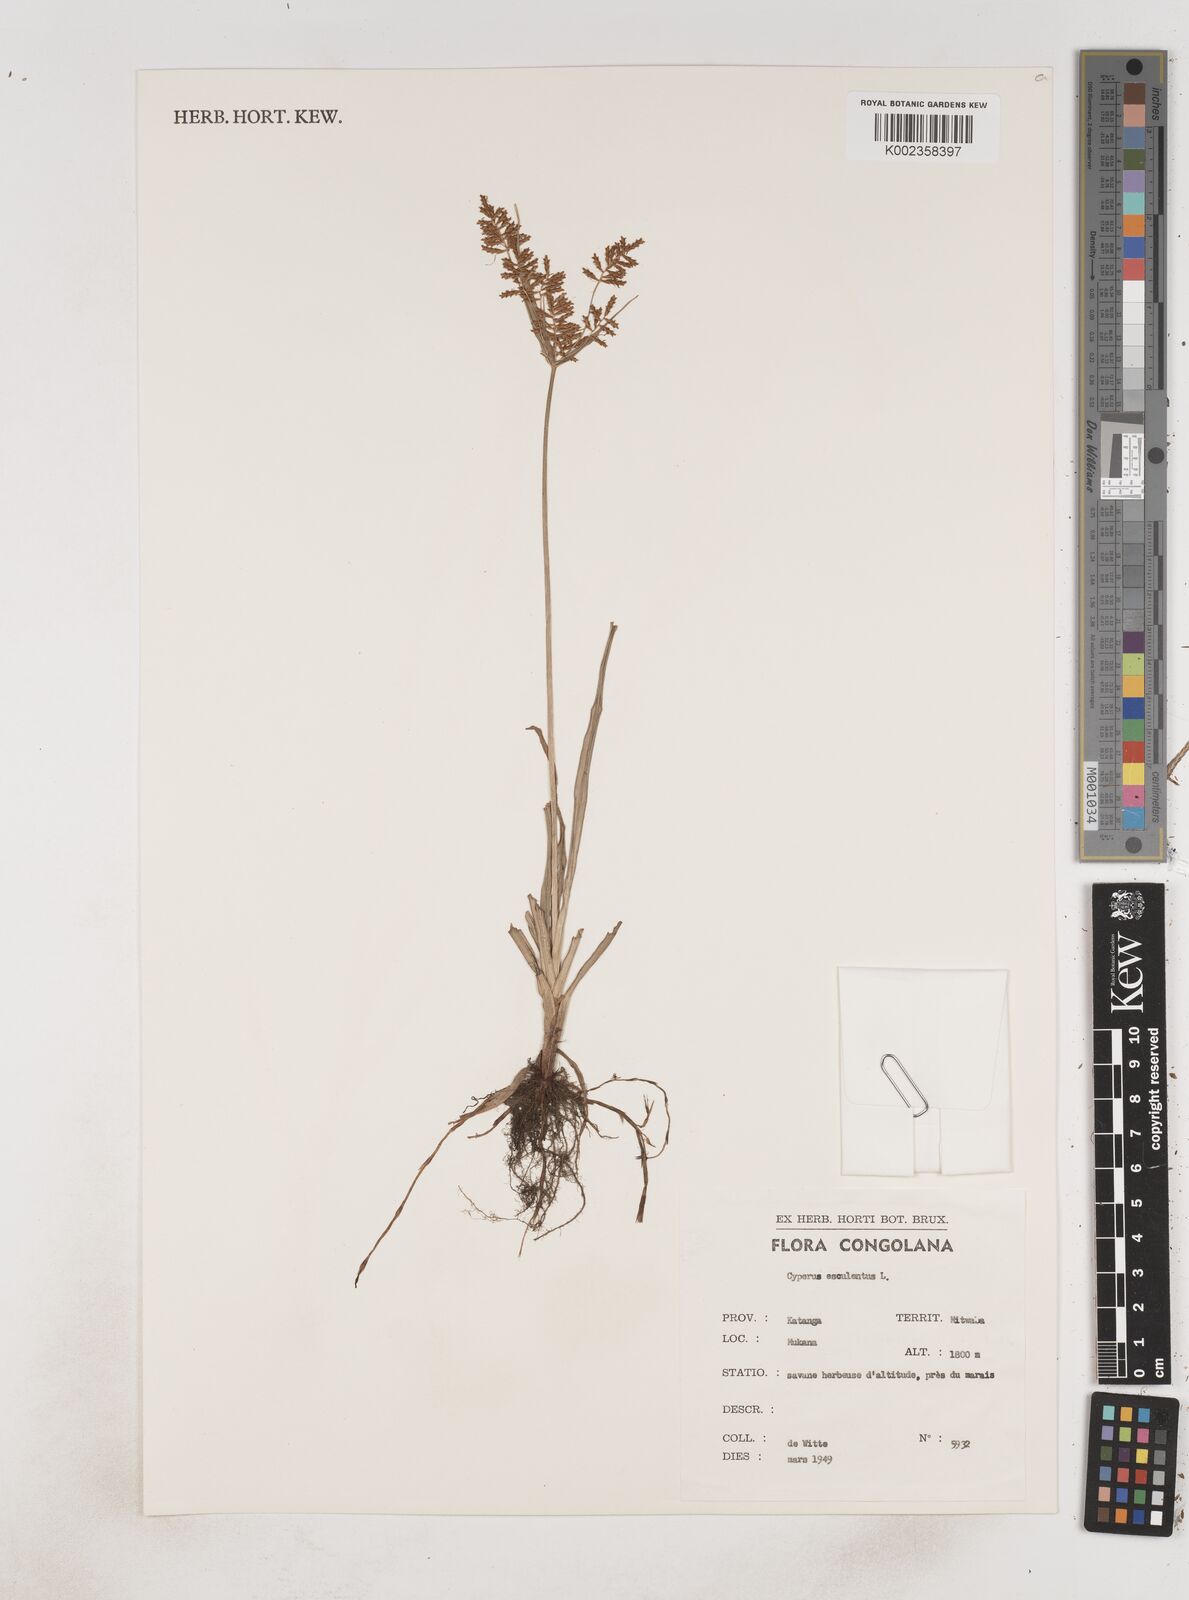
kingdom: Plantae
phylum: Tracheophyta
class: Liliopsida
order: Poales
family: Cyperaceae
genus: Cyperus
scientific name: Cyperus esculentus
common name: Yellow nutsedge
